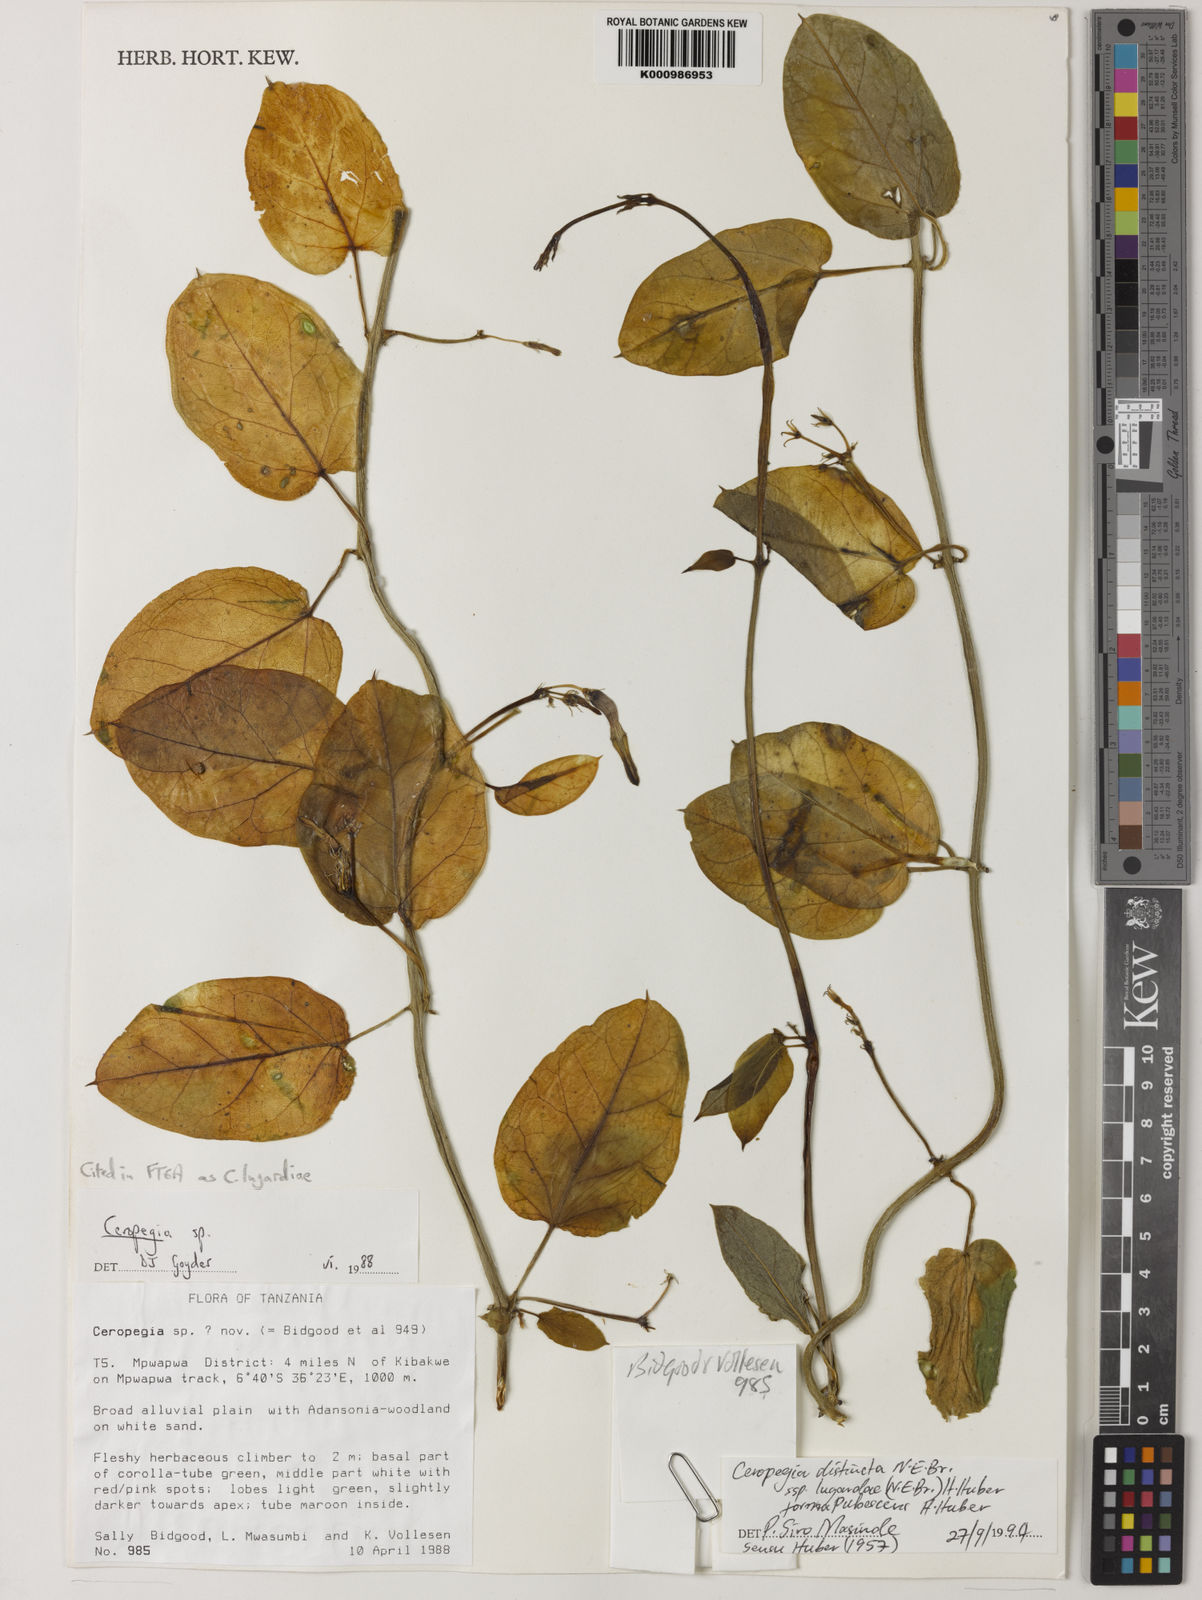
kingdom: Plantae
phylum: Tracheophyta
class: Magnoliopsida
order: Gentianales
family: Apocynaceae
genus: Ceropegia
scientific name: Ceropegia lugardiae
